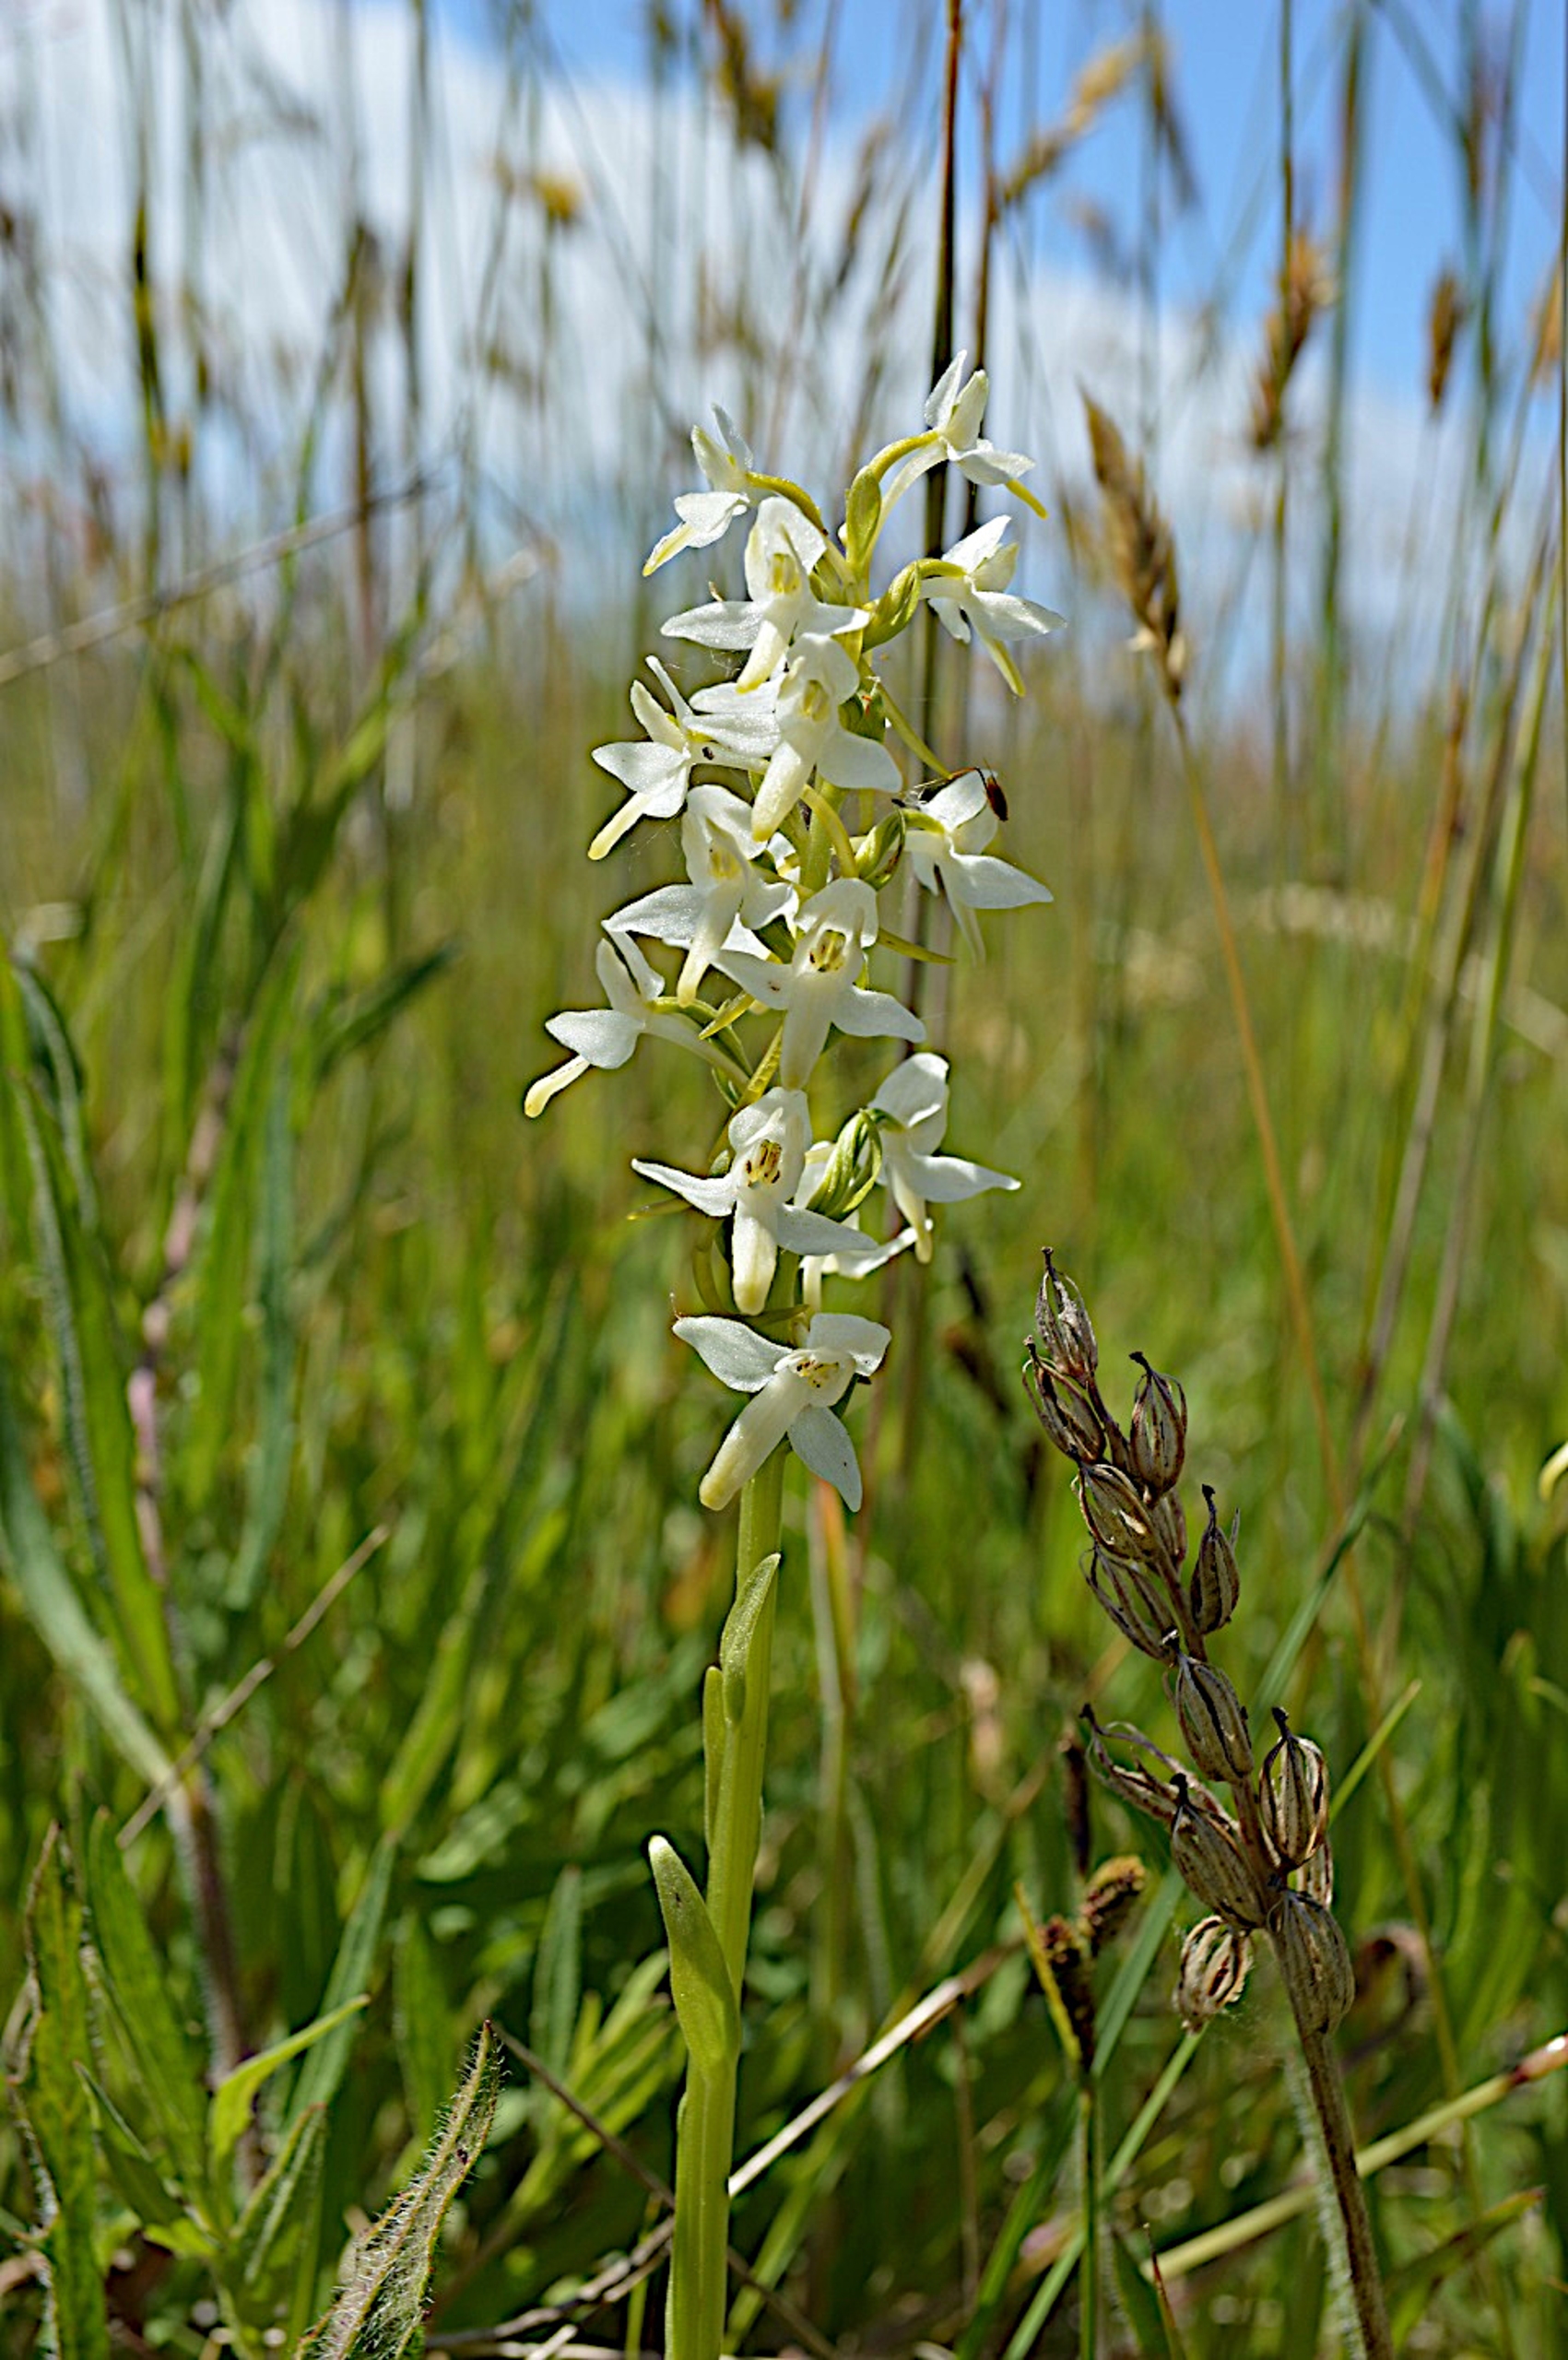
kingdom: Plantae
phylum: Tracheophyta
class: Liliopsida
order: Asparagales
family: Orchidaceae
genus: Platanthera
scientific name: Platanthera bifolia
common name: Bakke-gøgelilje
